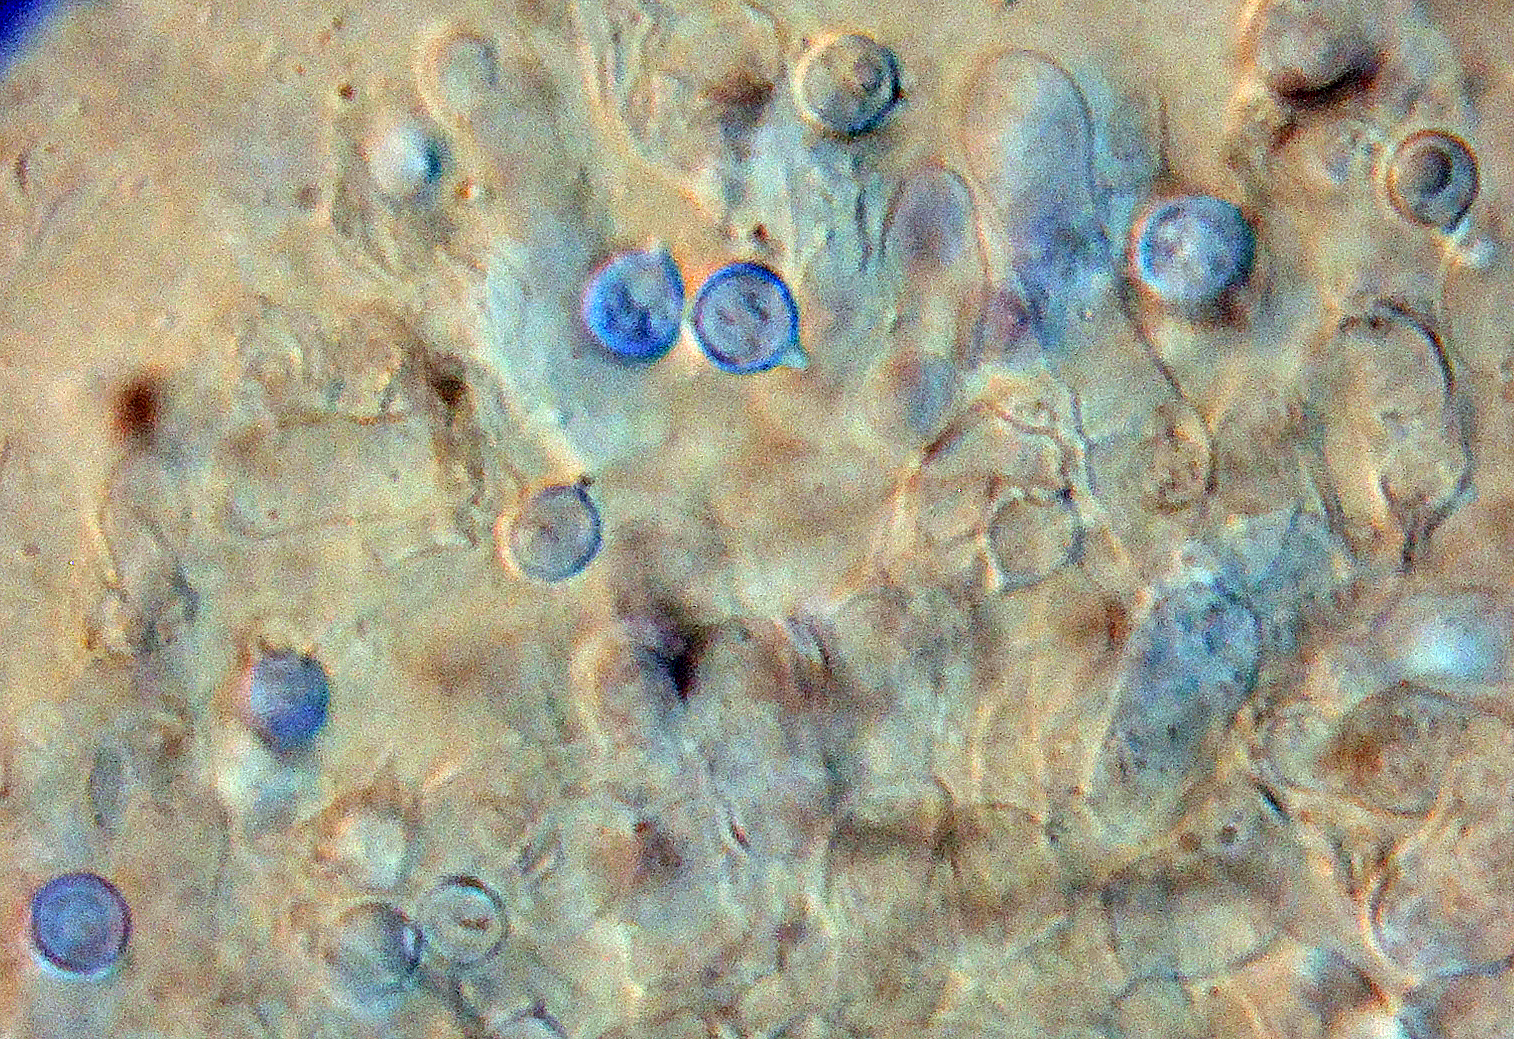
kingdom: Fungi
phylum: Basidiomycota
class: Agaricomycetes
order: Agaricales
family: Stephanosporaceae
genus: Cristinia
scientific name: Cristinia coprophila
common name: gødnings-citrushinde
